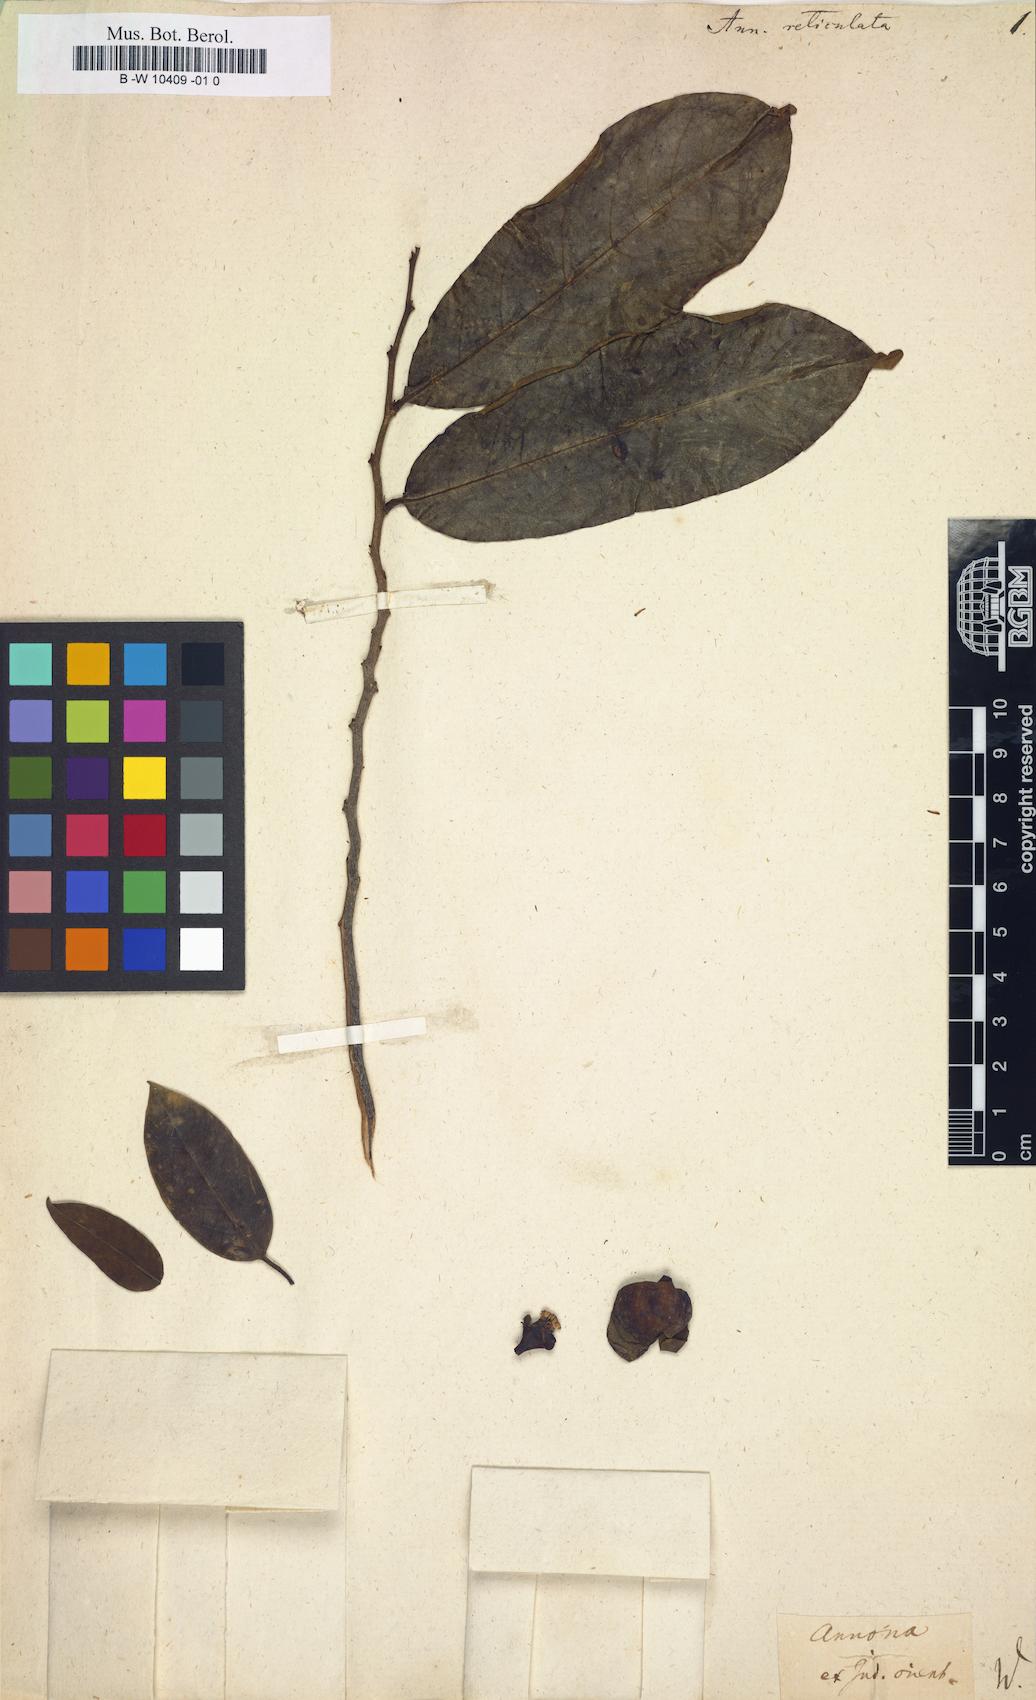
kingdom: Plantae
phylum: Tracheophyta
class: Magnoliopsida
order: Magnoliales
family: Annonaceae
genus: Annona
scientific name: Annona reticulata
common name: Custard apple
